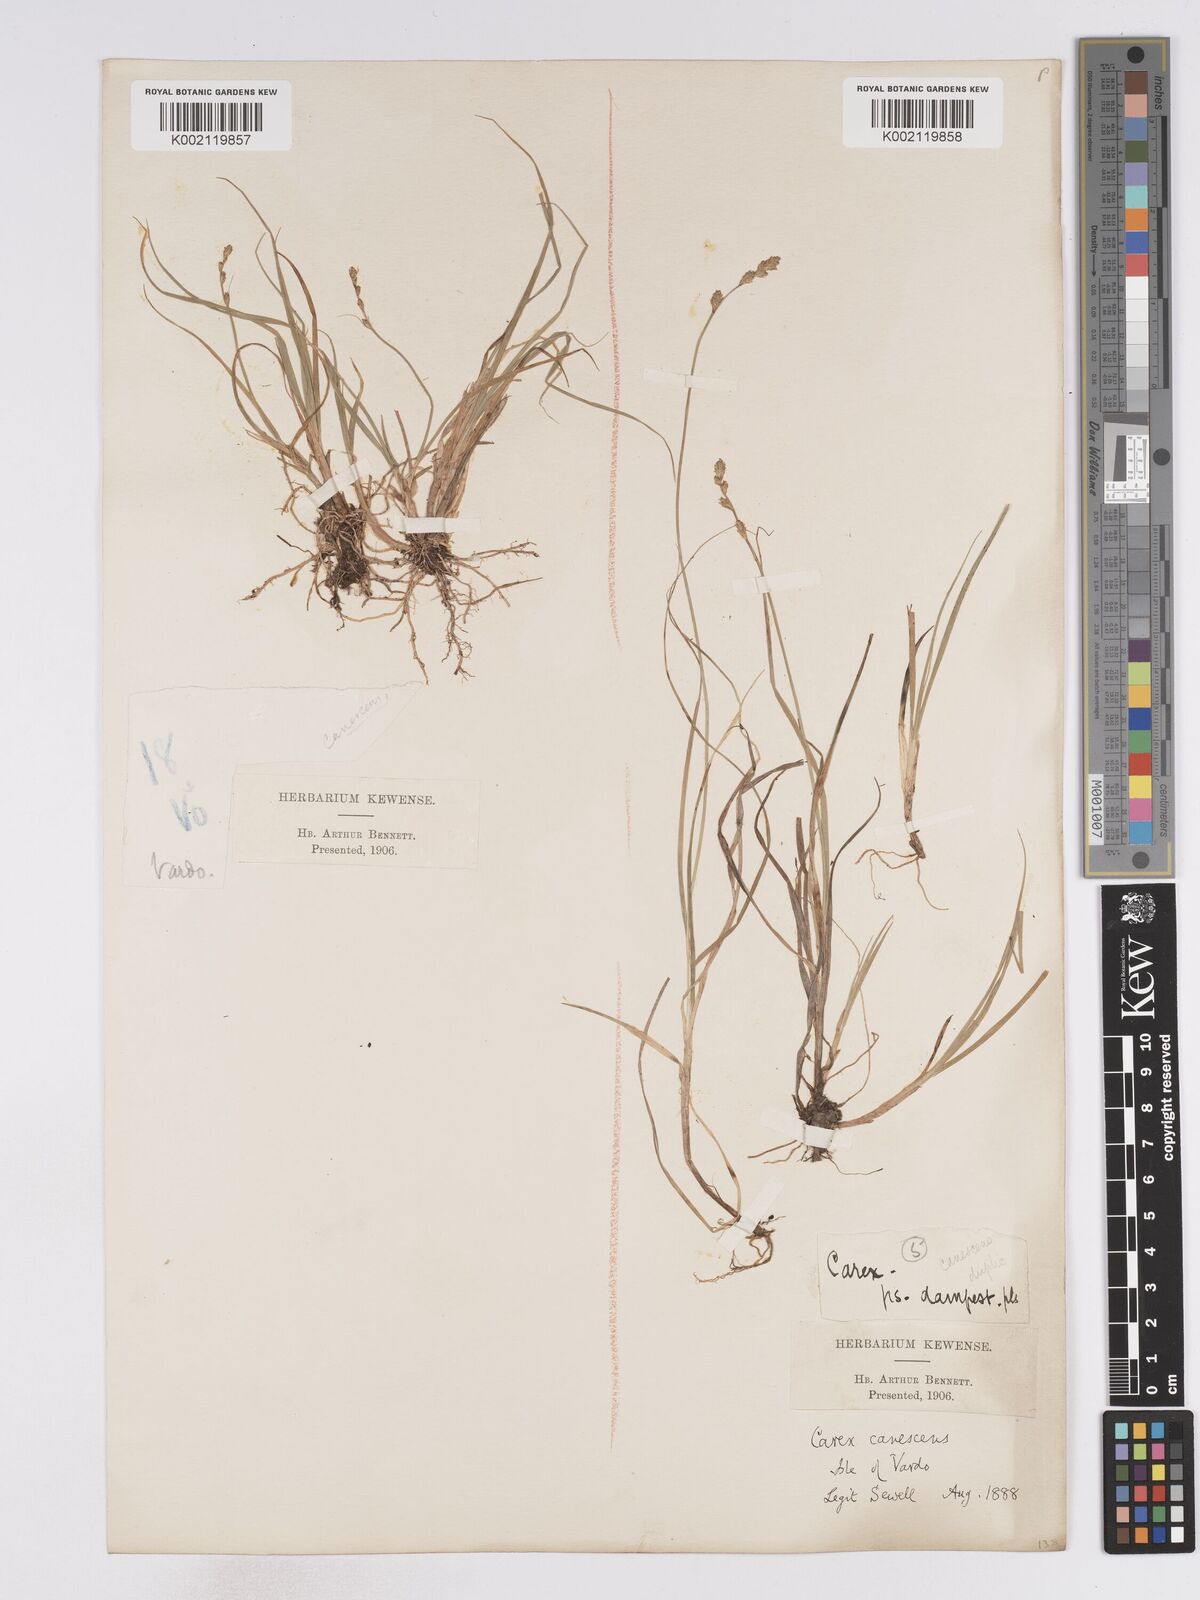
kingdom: Plantae
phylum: Tracheophyta
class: Liliopsida
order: Poales
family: Cyperaceae
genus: Carex
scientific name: Carex curta
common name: White sedge
